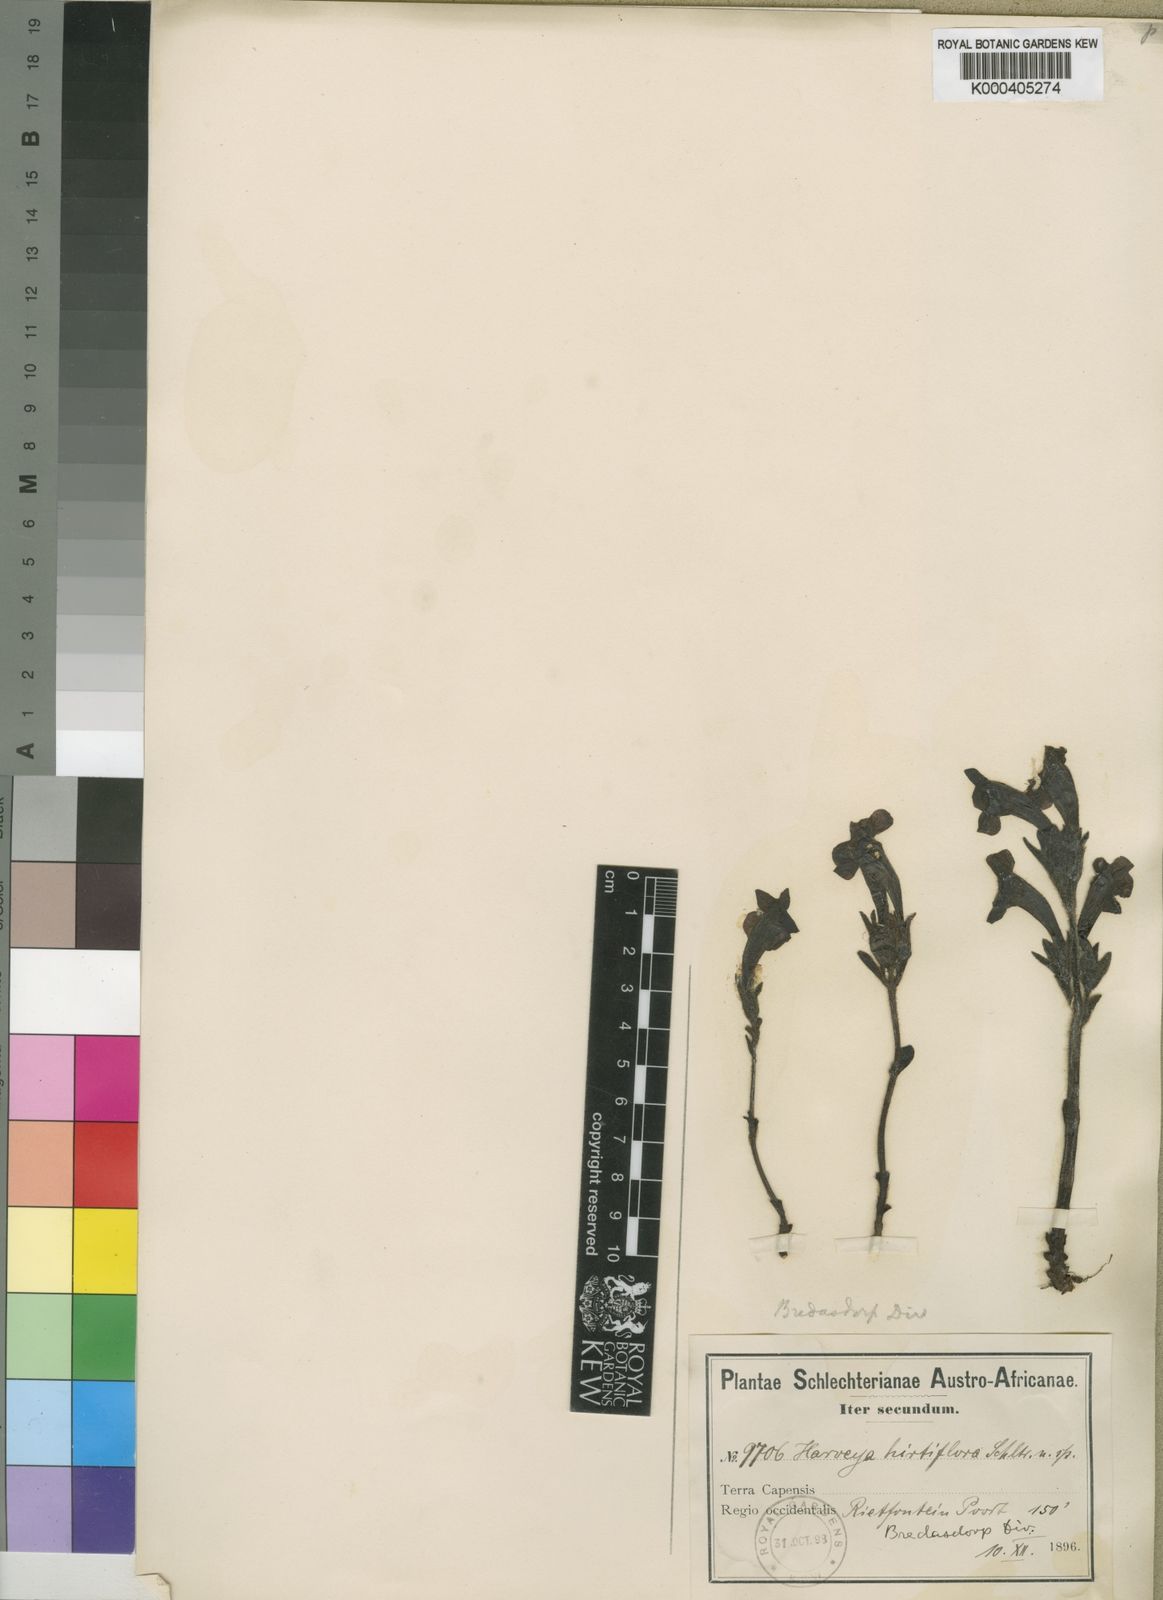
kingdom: Plantae
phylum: Tracheophyta
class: Magnoliopsida
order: Lamiales
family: Orobanchaceae
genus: Harveya
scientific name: Harveya bolusii
